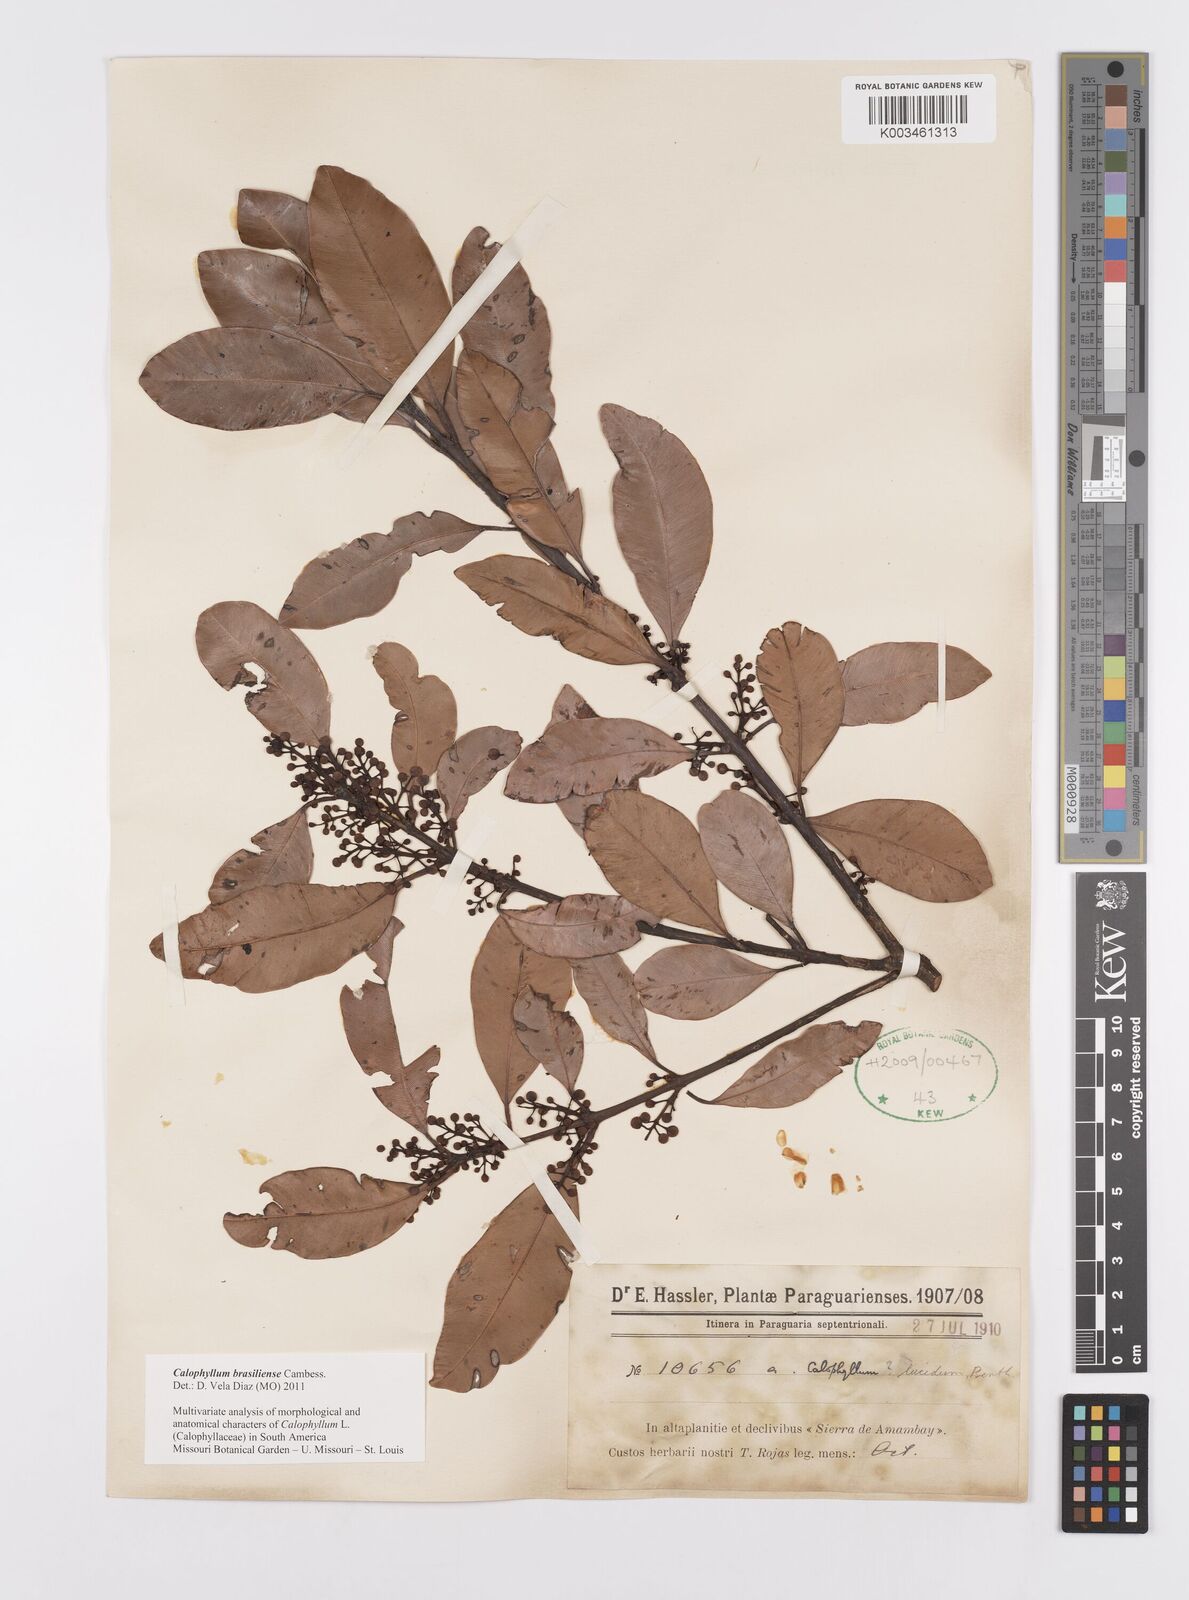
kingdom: Plantae
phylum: Tracheophyta
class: Magnoliopsida
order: Malpighiales
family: Calophyllaceae
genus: Calophyllum
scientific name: Calophyllum brasiliense
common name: Santa maria
